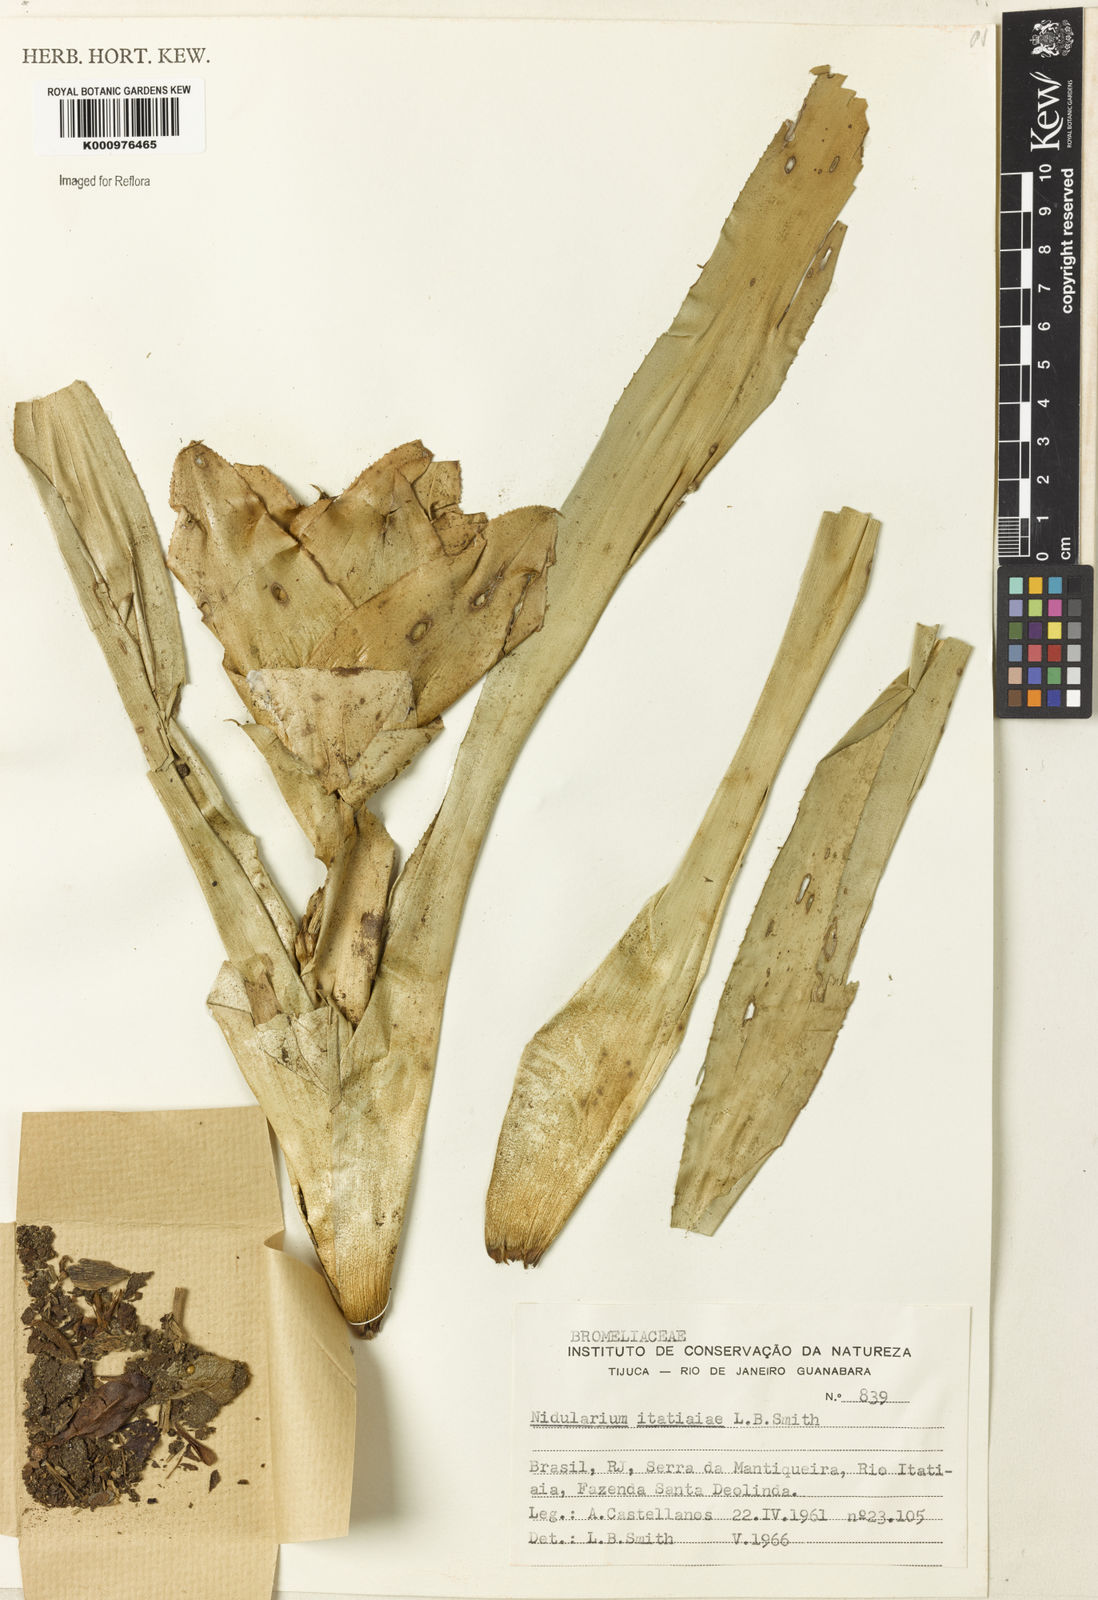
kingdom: Plantae
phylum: Tracheophyta
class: Liliopsida
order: Poales
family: Bromeliaceae
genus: Nidularium
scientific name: Nidularium itatiaiae
